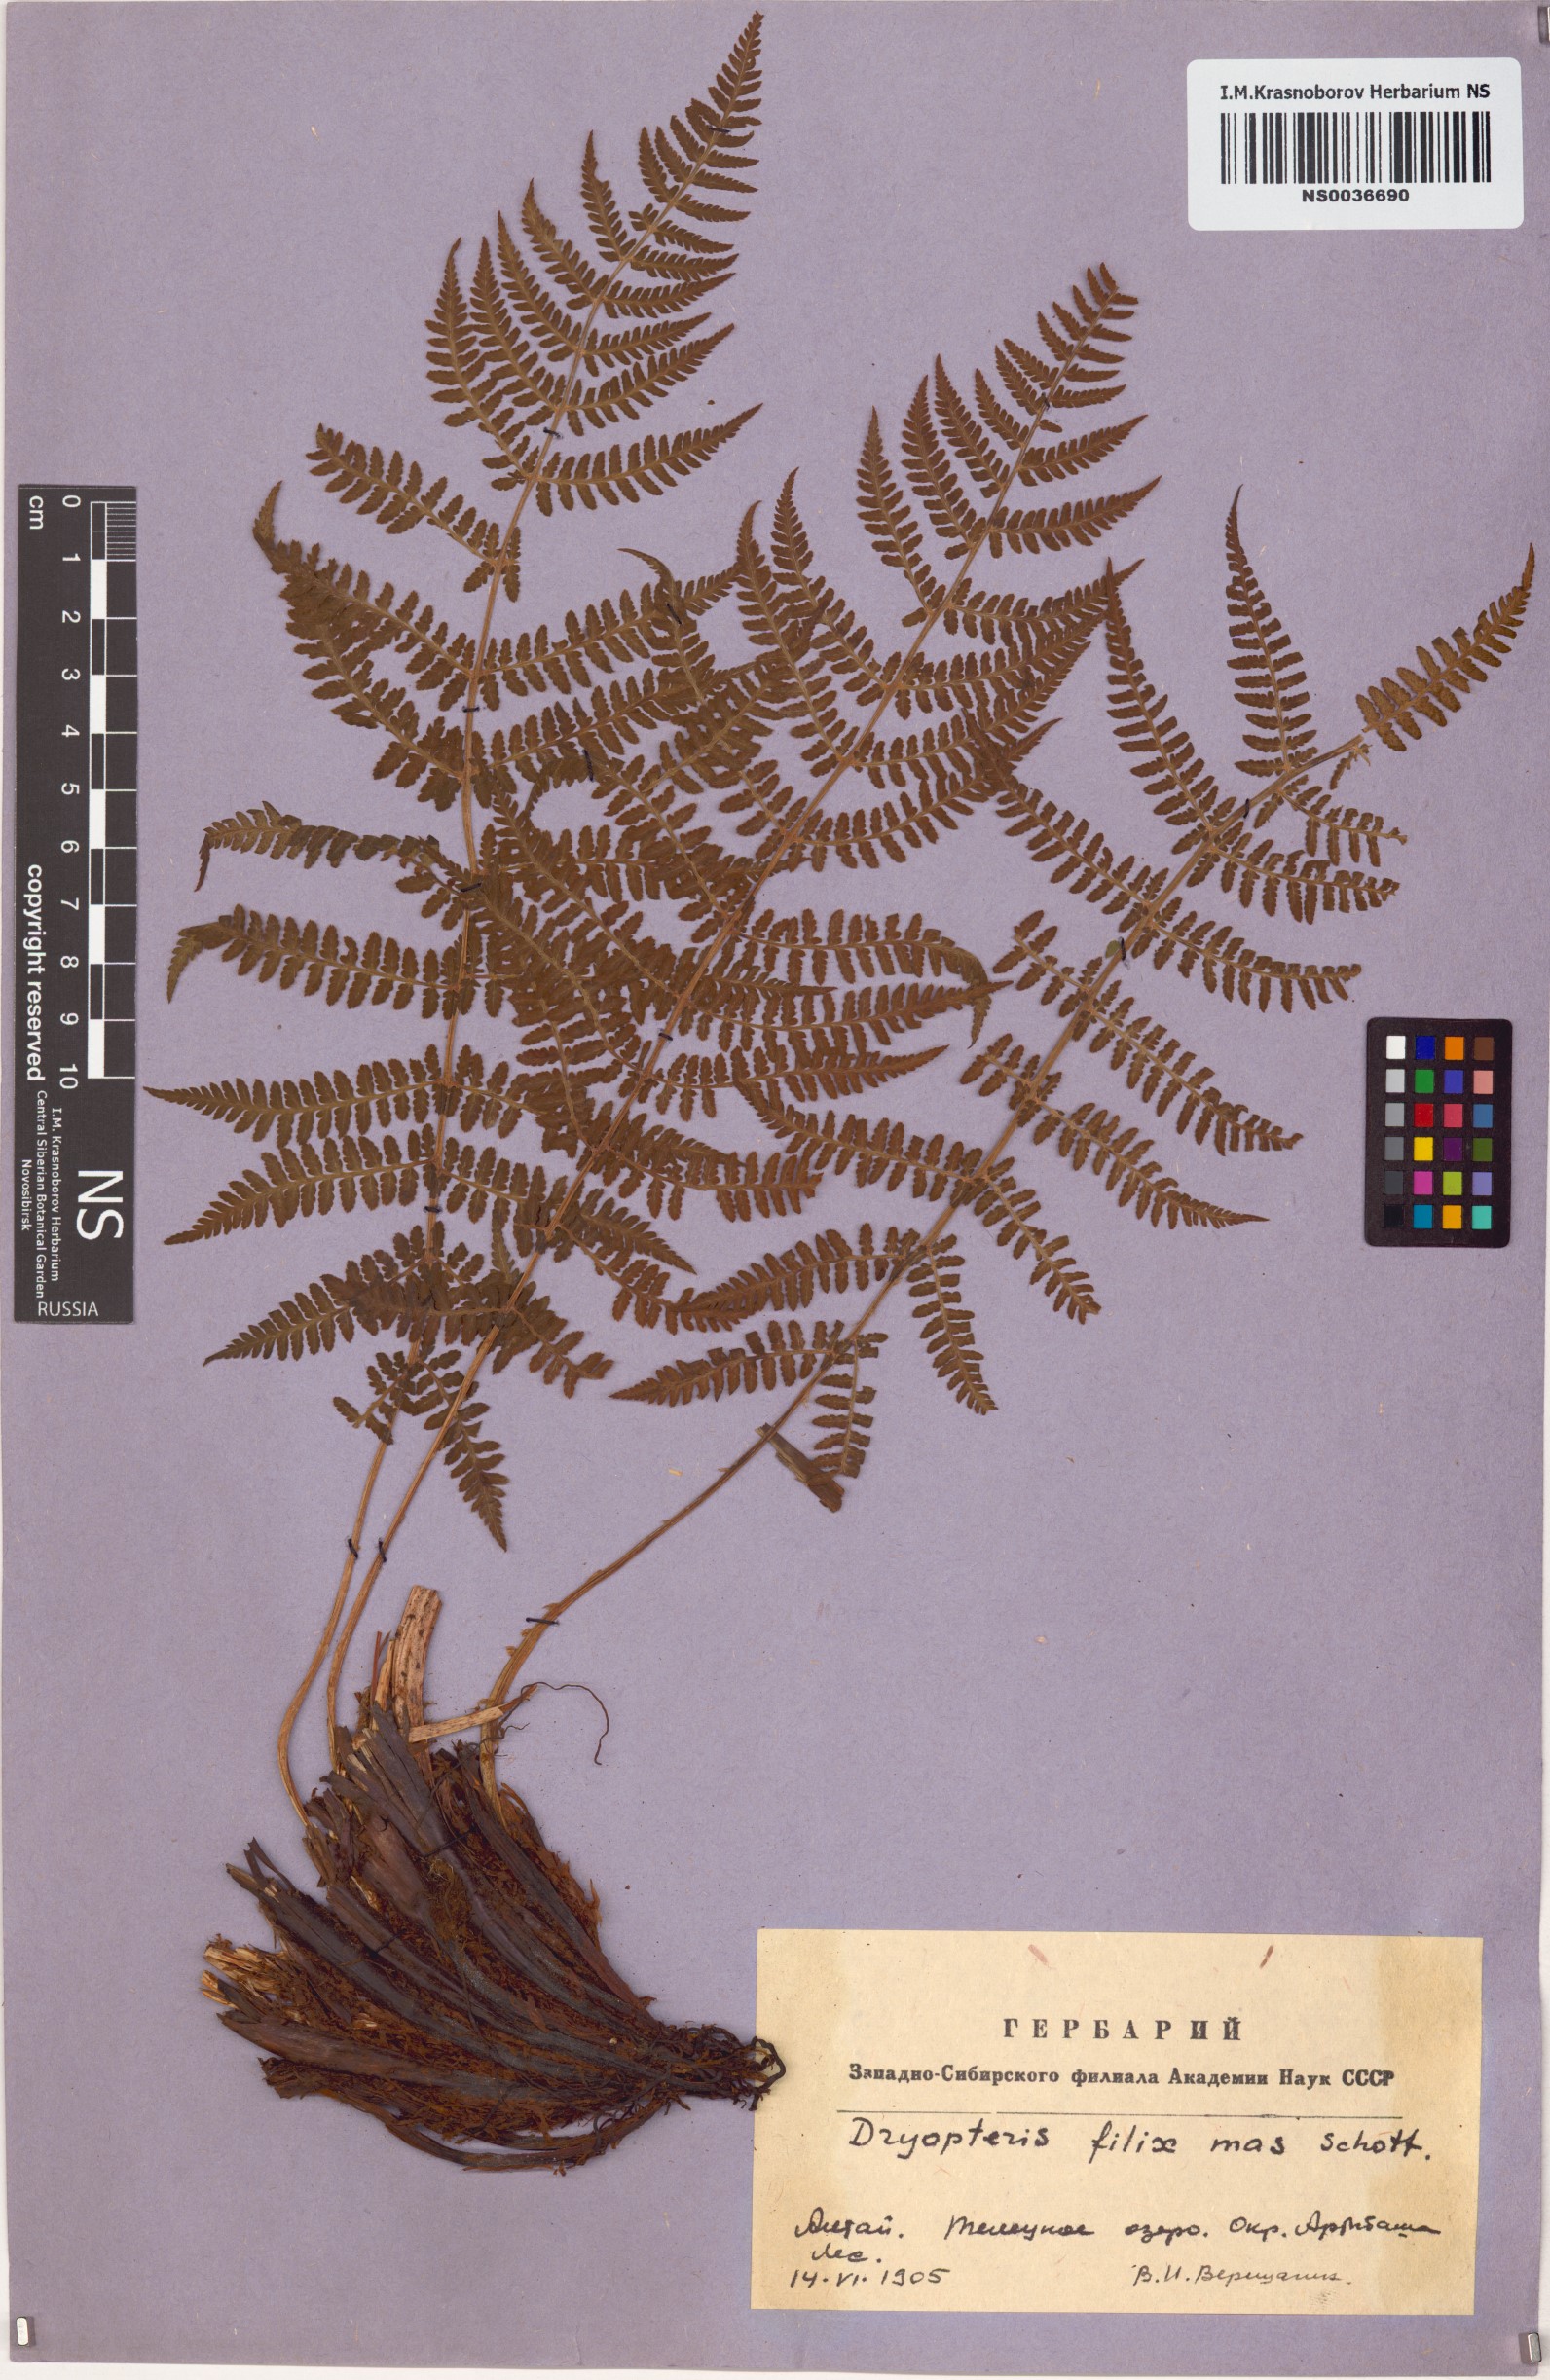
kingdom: Plantae
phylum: Tracheophyta
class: Polypodiopsida
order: Polypodiales
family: Dryopteridaceae
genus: Dryopteris
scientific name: Dryopteris filix-mas
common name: Male fern
